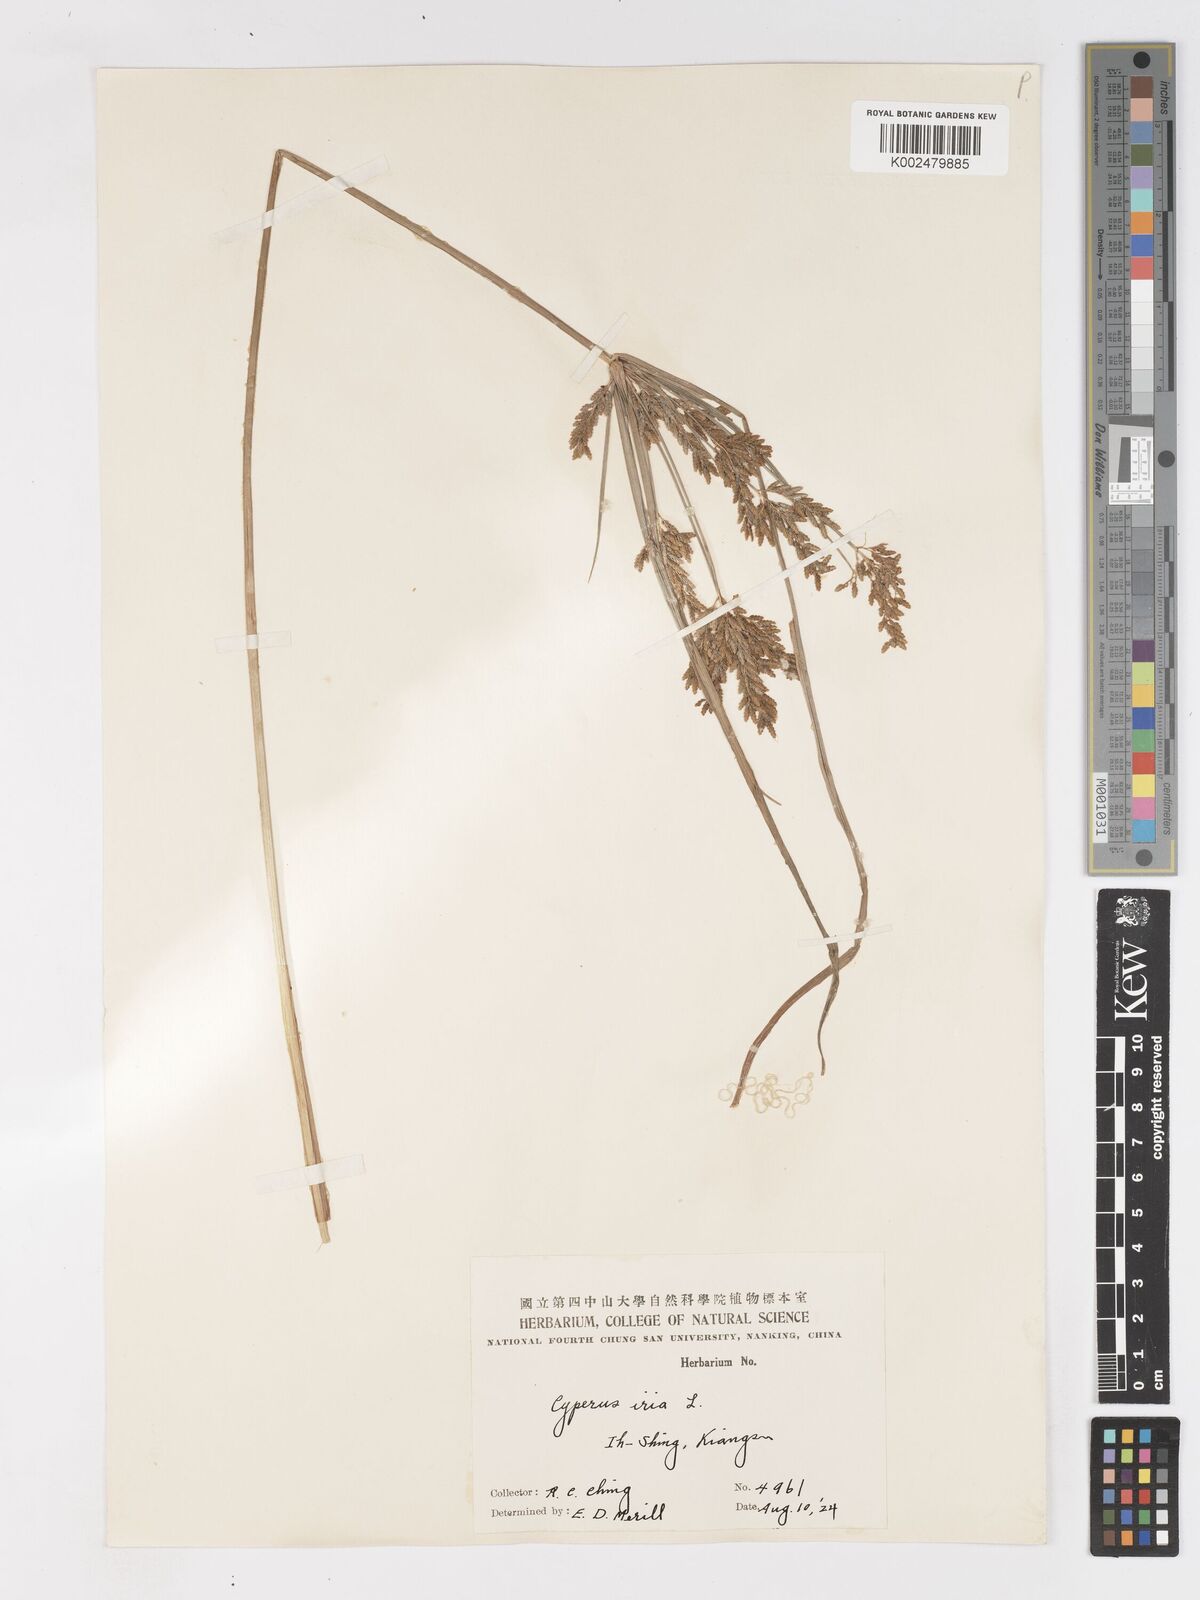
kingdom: Plantae
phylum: Tracheophyta
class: Liliopsida
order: Poales
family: Cyperaceae
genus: Cyperus
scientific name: Cyperus iria
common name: Ricefield flatsedge
